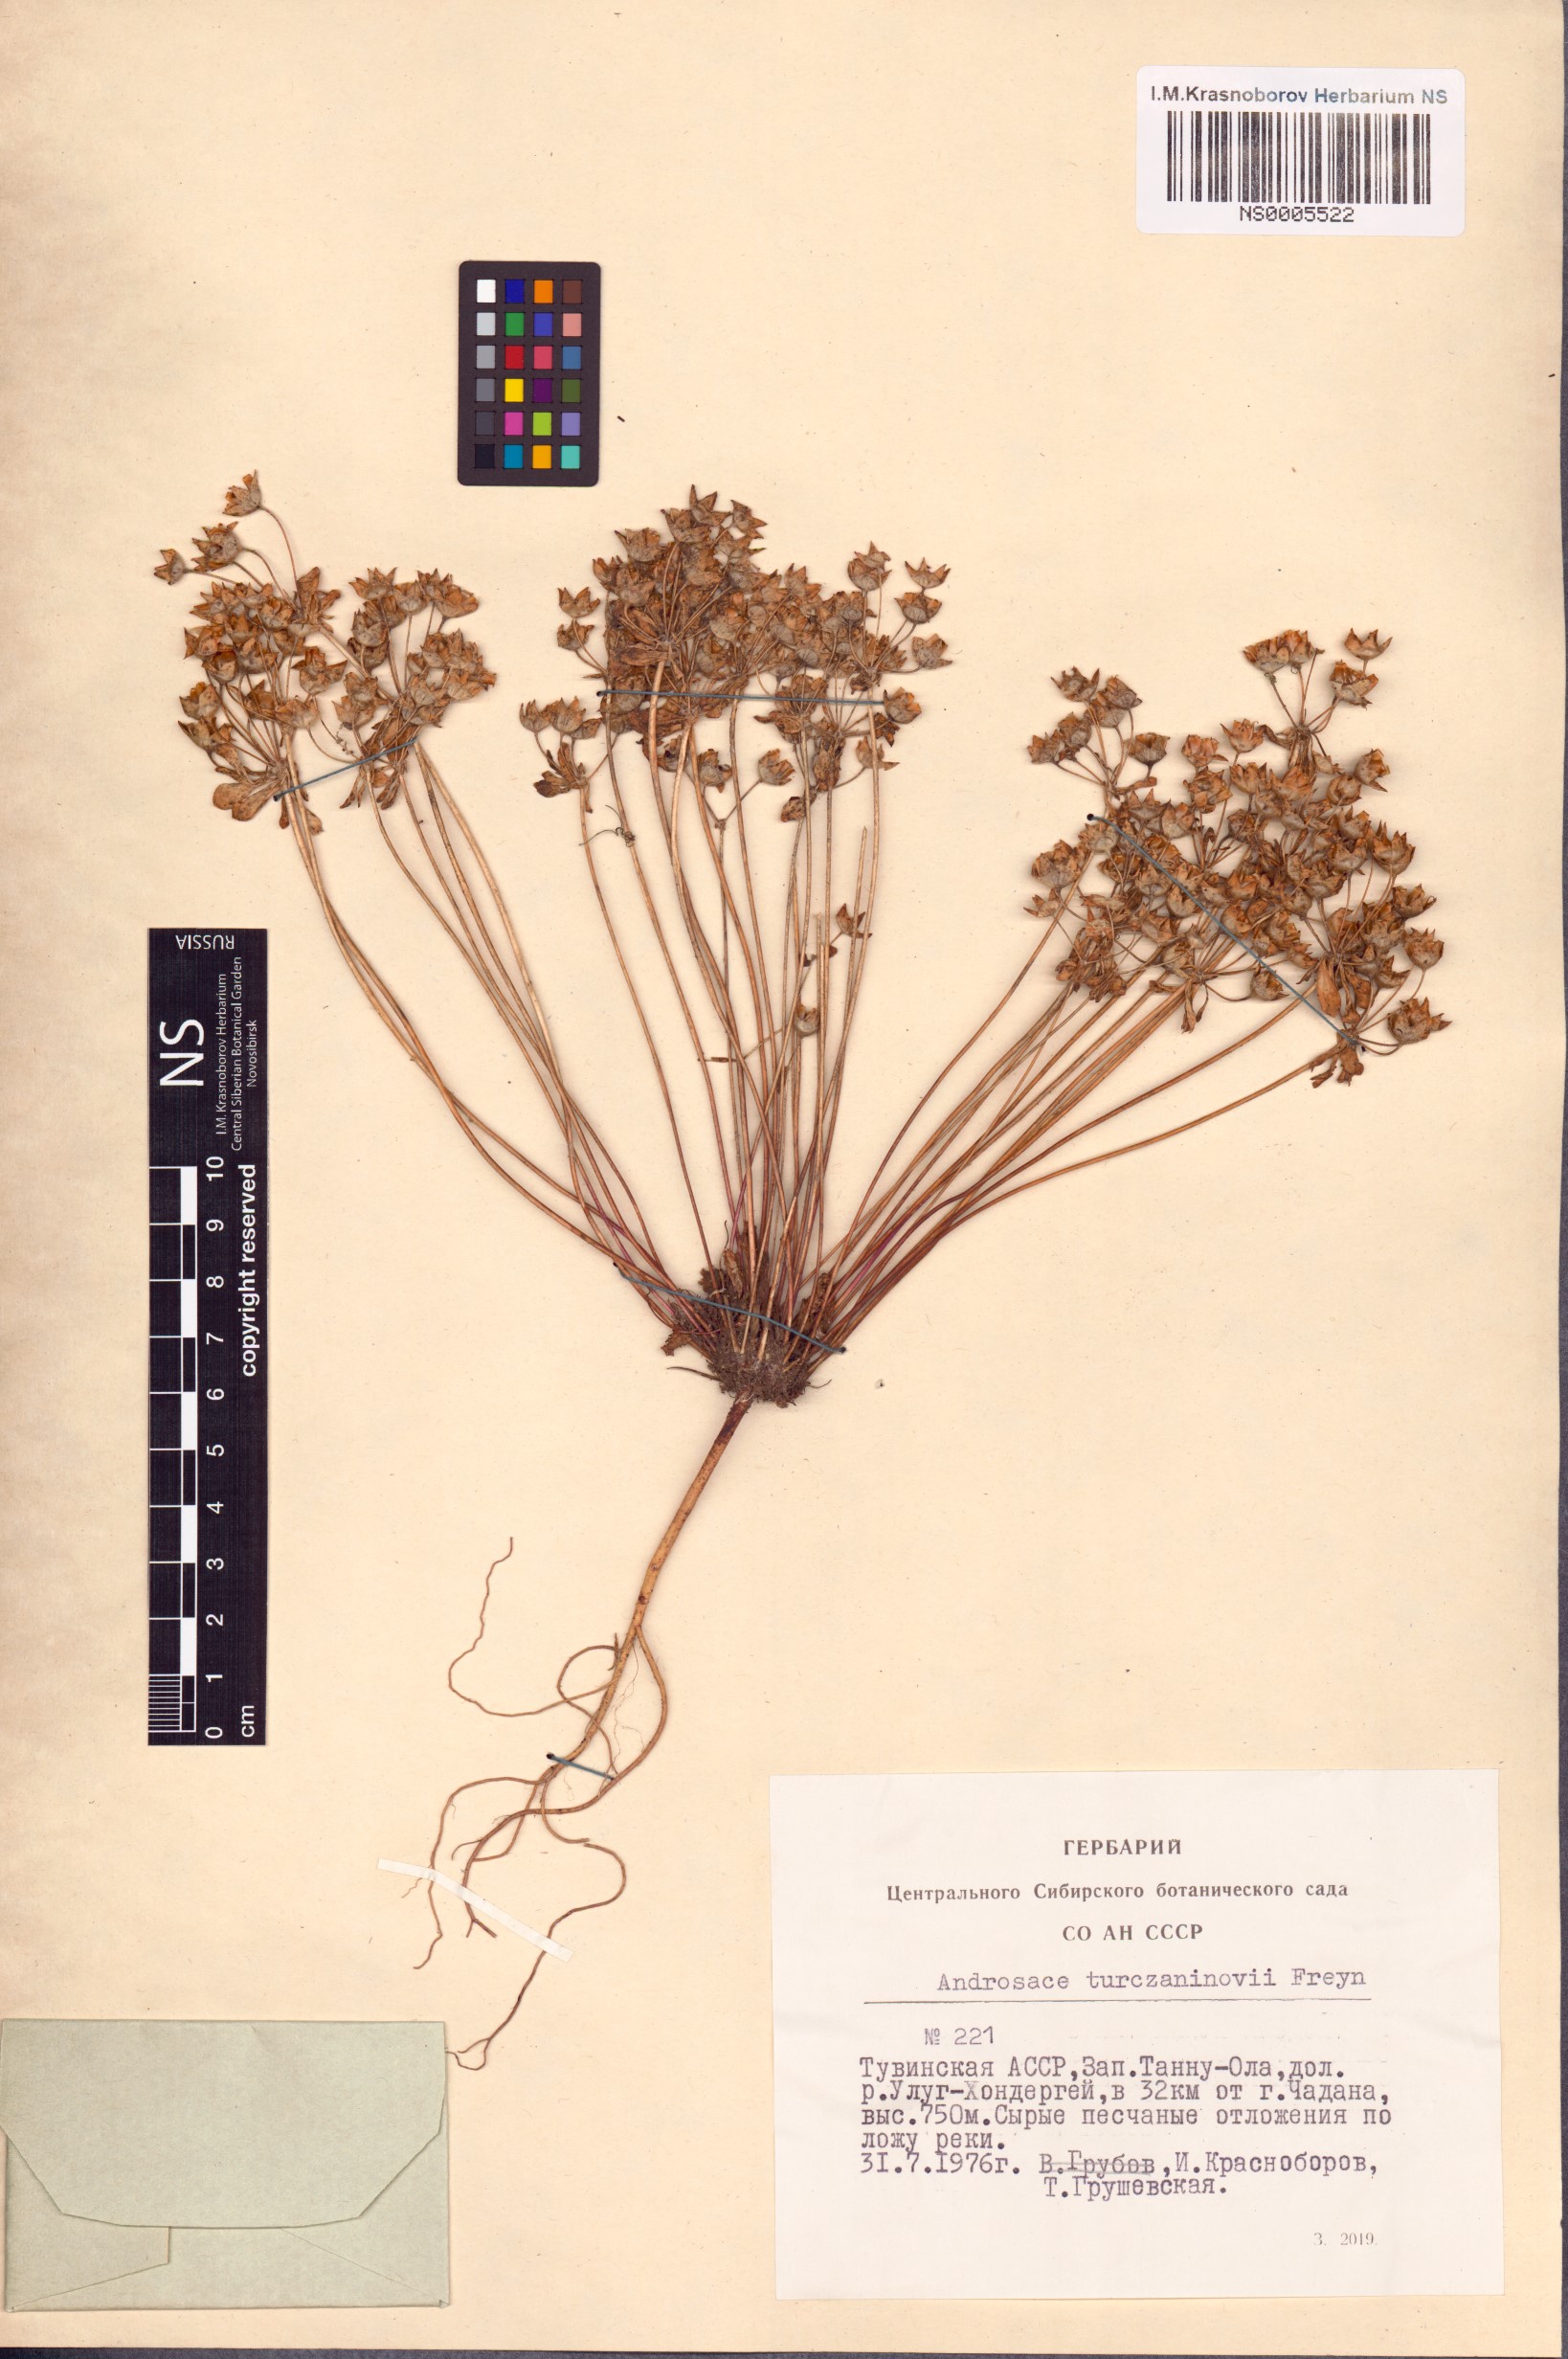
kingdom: Plantae
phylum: Tracheophyta
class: Magnoliopsida
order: Ericales
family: Primulaceae
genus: Androsace
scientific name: Androsace maxima
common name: Annual androsace
